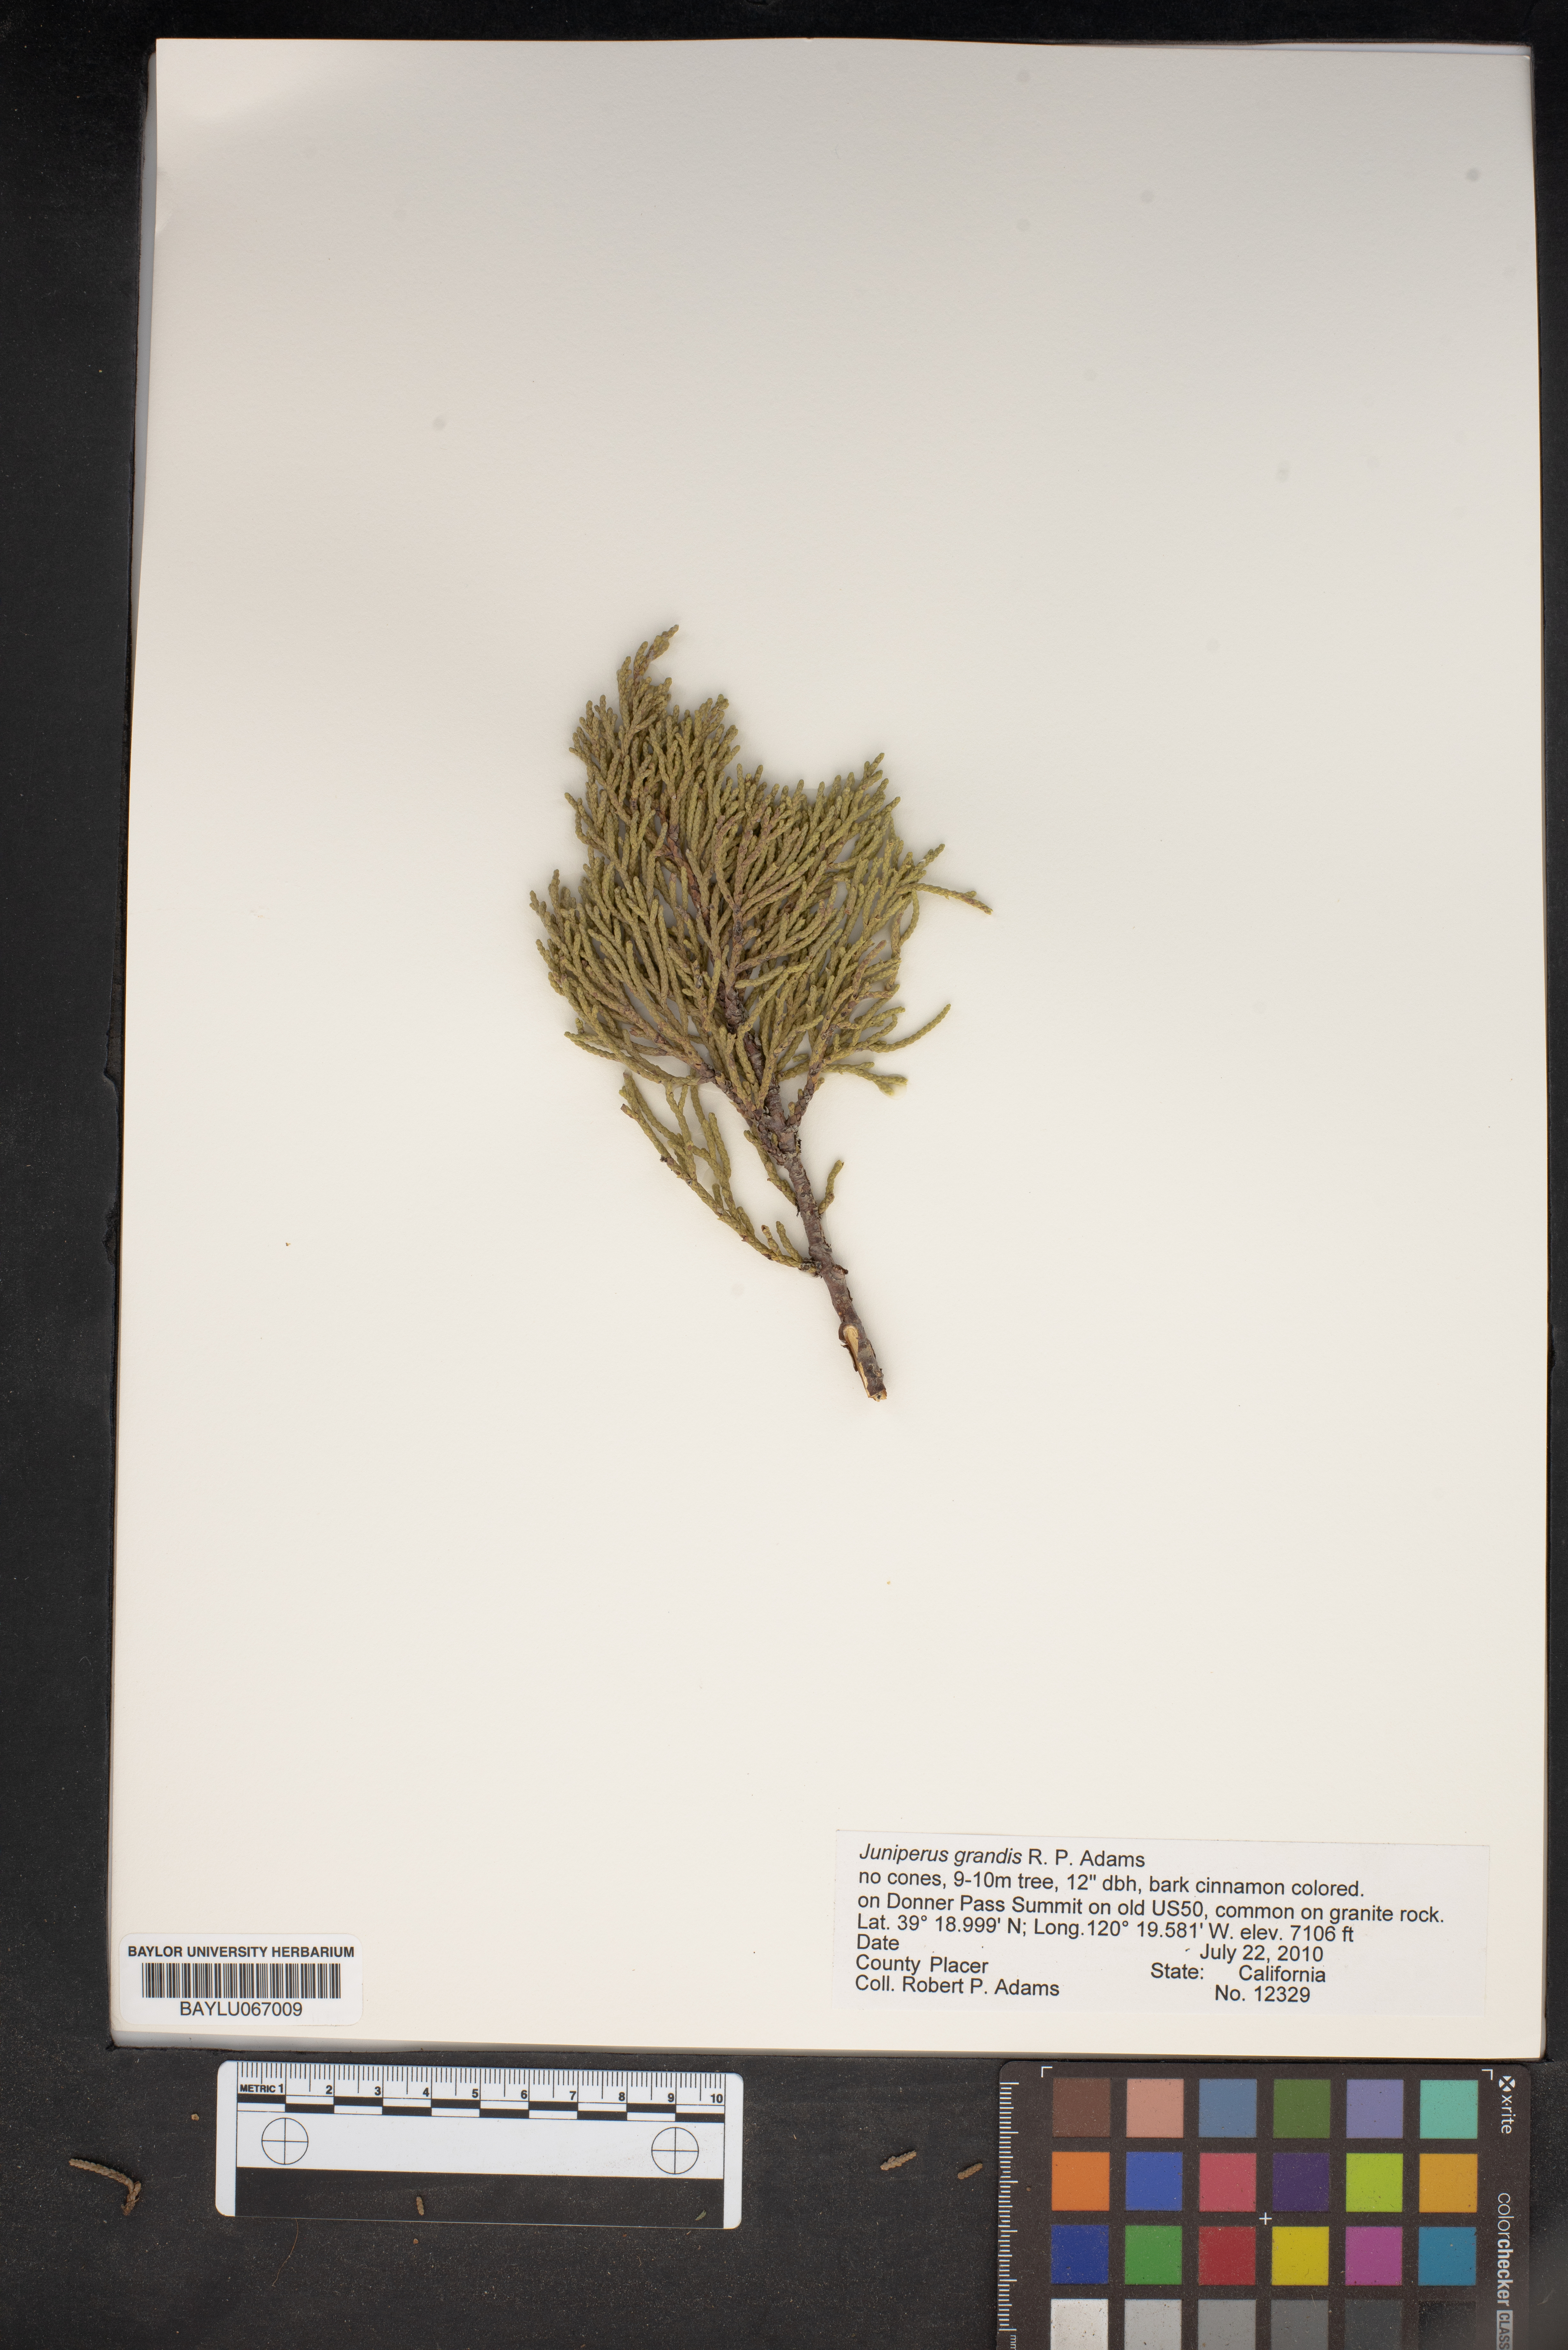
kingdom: Plantae
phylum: Tracheophyta
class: Pinopsida
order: Pinales
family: Cupressaceae
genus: Juniperus
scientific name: Juniperus occidentalis
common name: Western juniper
